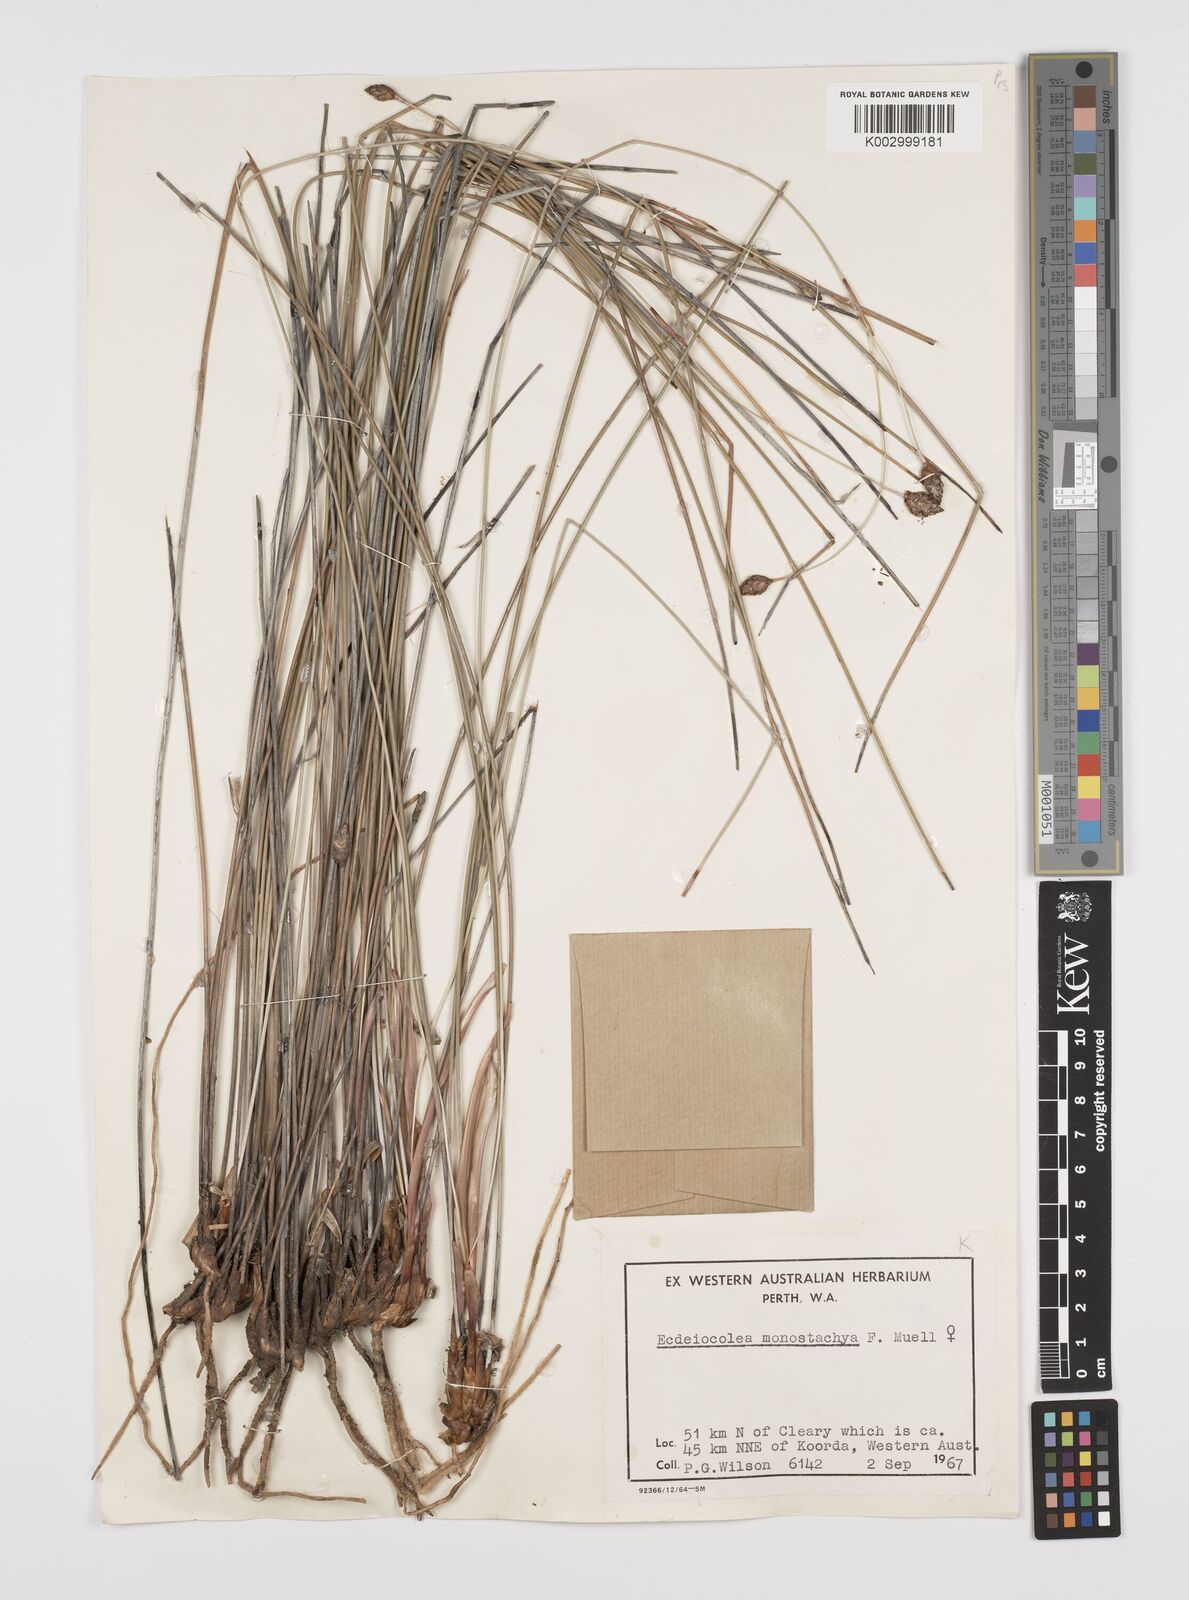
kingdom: Plantae
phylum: Tracheophyta
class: Liliopsida
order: Poales
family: Ecdeiocoleaceae
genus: Ecdeiocolea
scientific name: Ecdeiocolea monostachya
